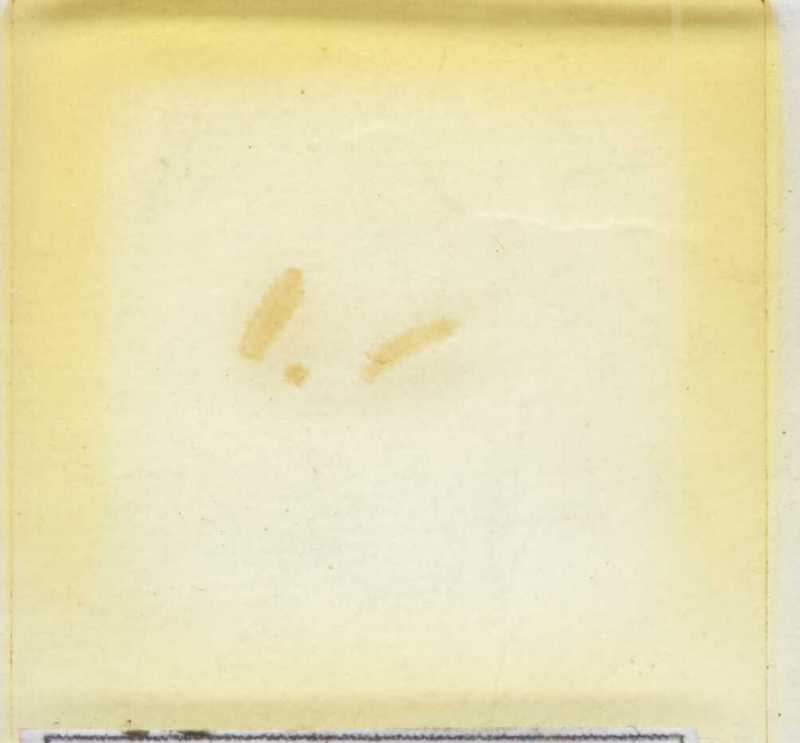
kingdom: Animalia
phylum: Arthropoda
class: Diplopoda
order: Polyxenida
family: Lophoproctidae
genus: Lophoproctus
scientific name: Lophoproctus lucidus
